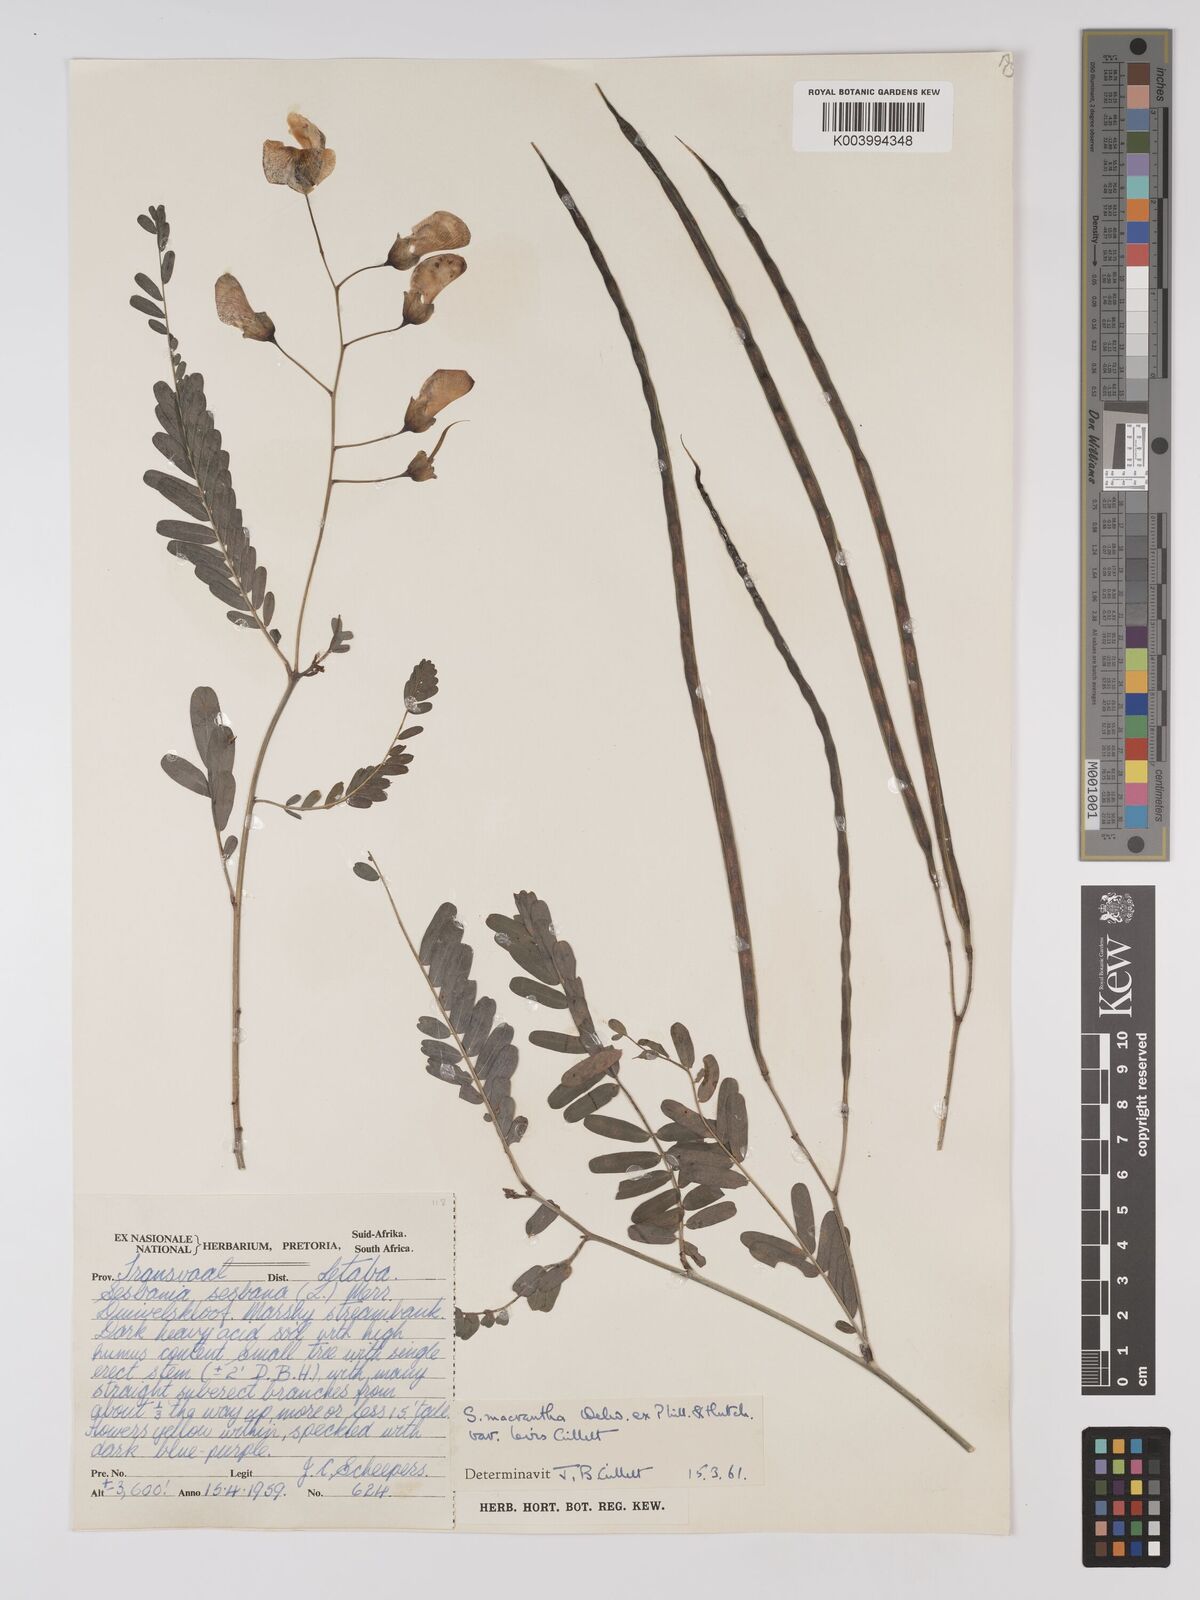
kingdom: Plantae
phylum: Tracheophyta
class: Magnoliopsida
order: Fabales
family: Fabaceae
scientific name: Fabaceae
